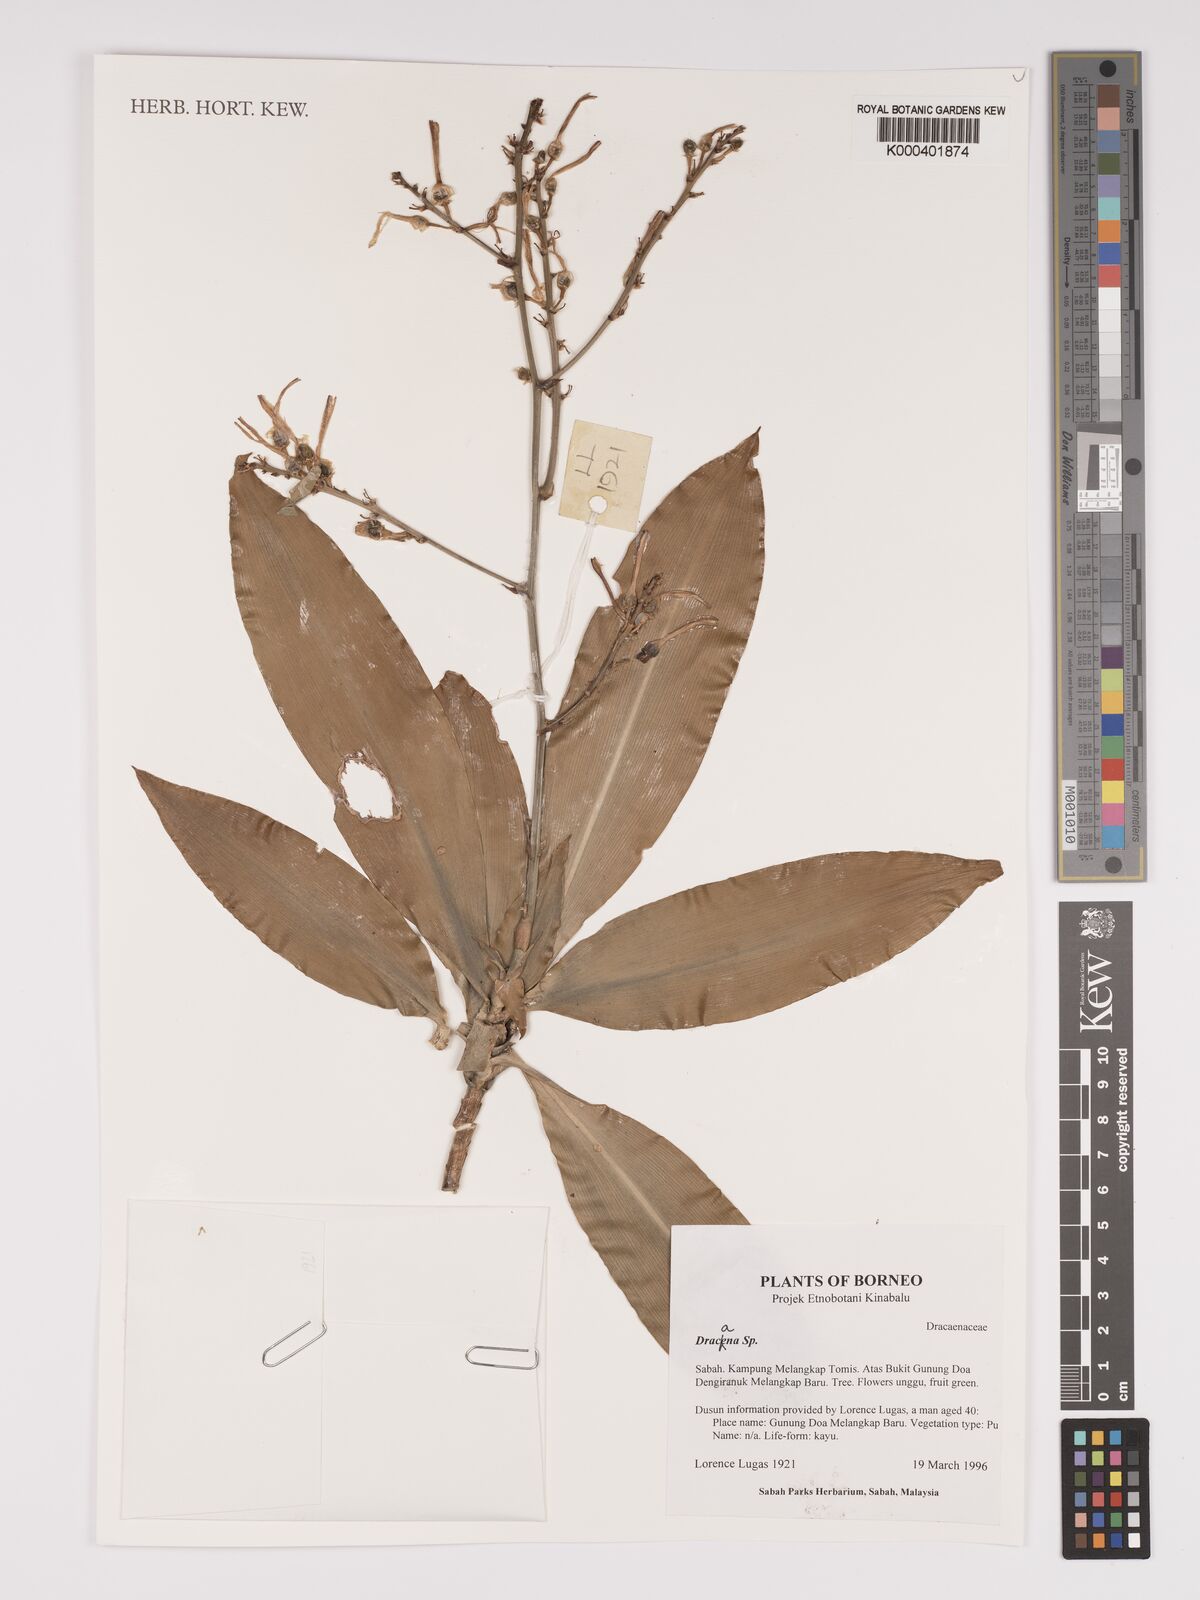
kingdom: Plantae
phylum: Tracheophyta
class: Liliopsida
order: Asparagales
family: Asparagaceae
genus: Dracaena
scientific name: Dracaena
